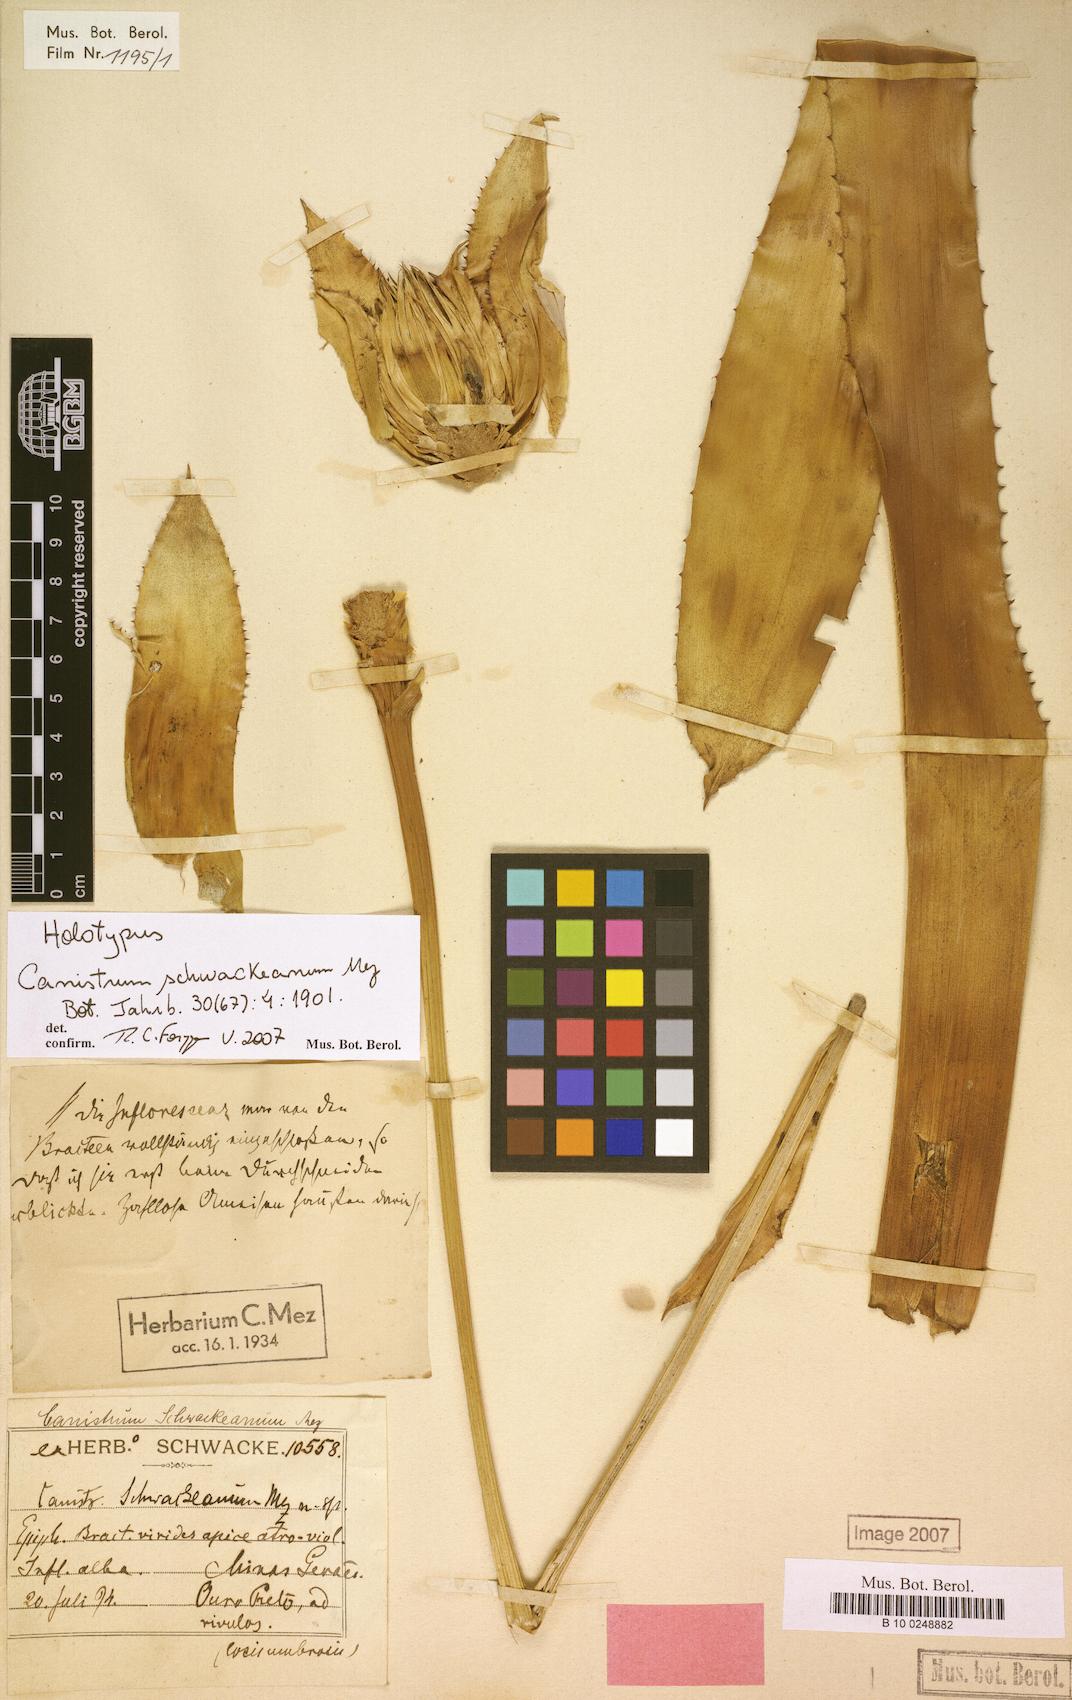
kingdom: Plantae
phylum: Tracheophyta
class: Liliopsida
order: Poales
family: Bromeliaceae
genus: Wittrockia
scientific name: Wittrockia cyathiformis
